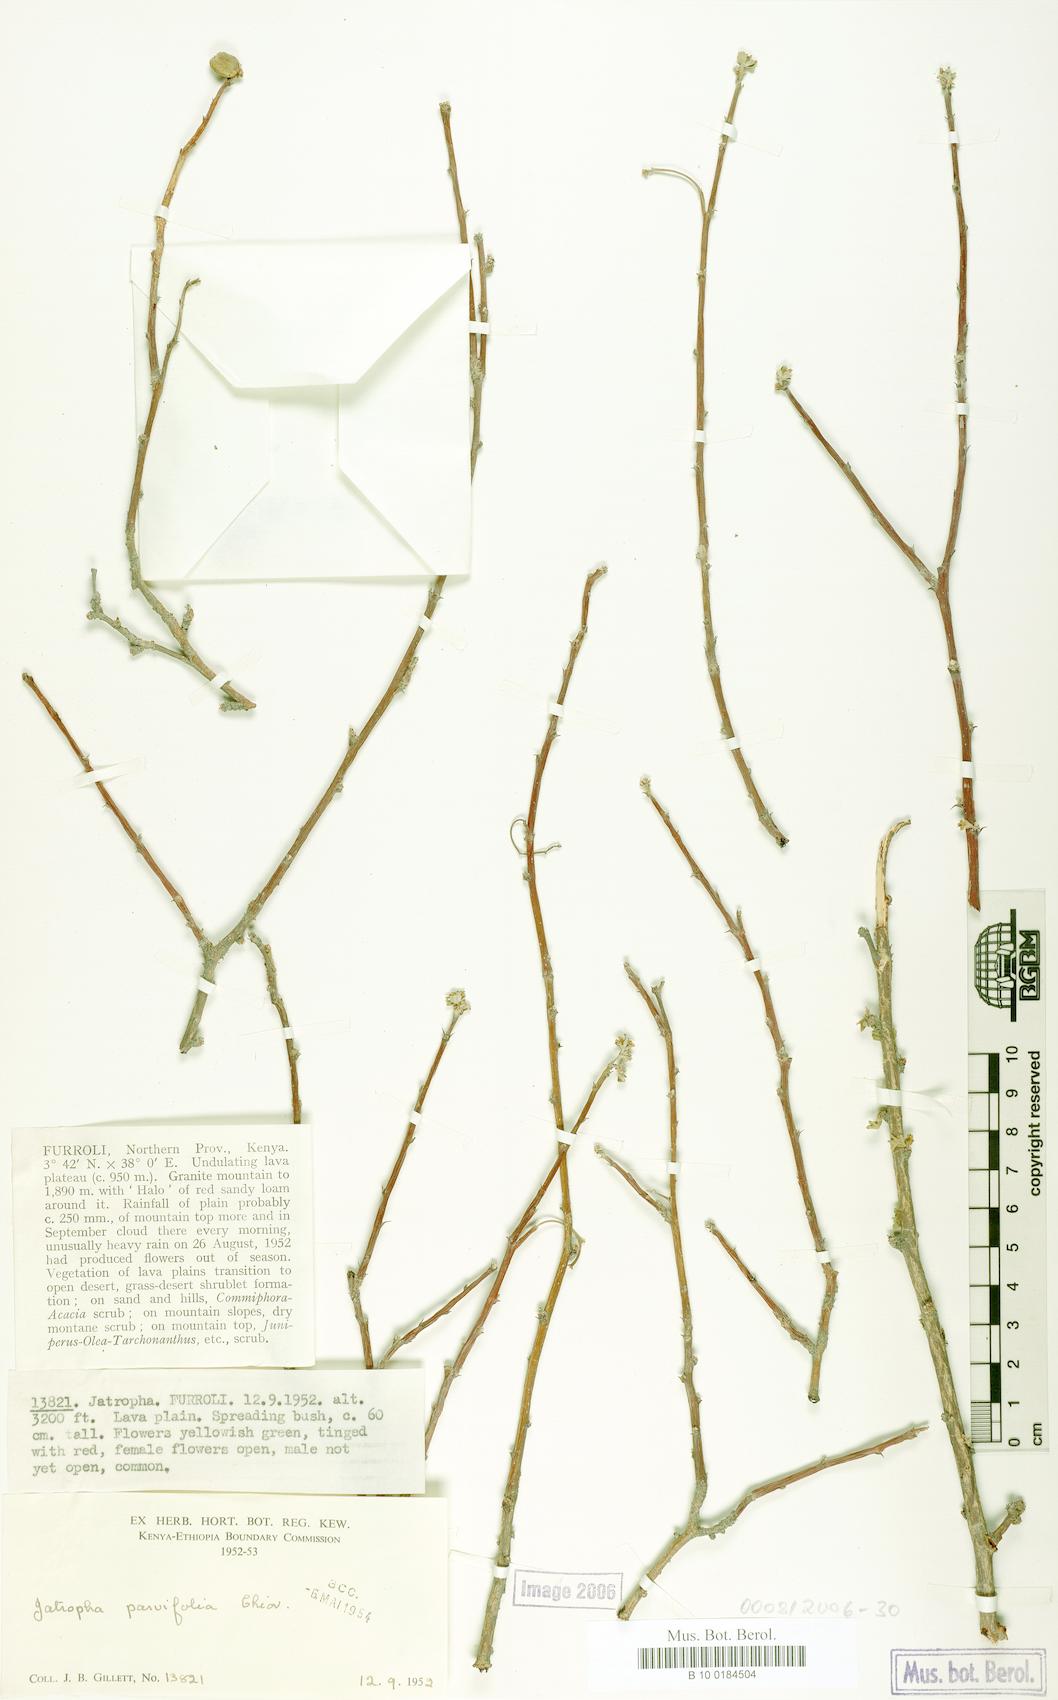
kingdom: Plantae
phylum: Tracheophyta
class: Magnoliopsida
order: Malpighiales
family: Euphorbiaceae
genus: Jatropha
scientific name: Jatropha rivae
